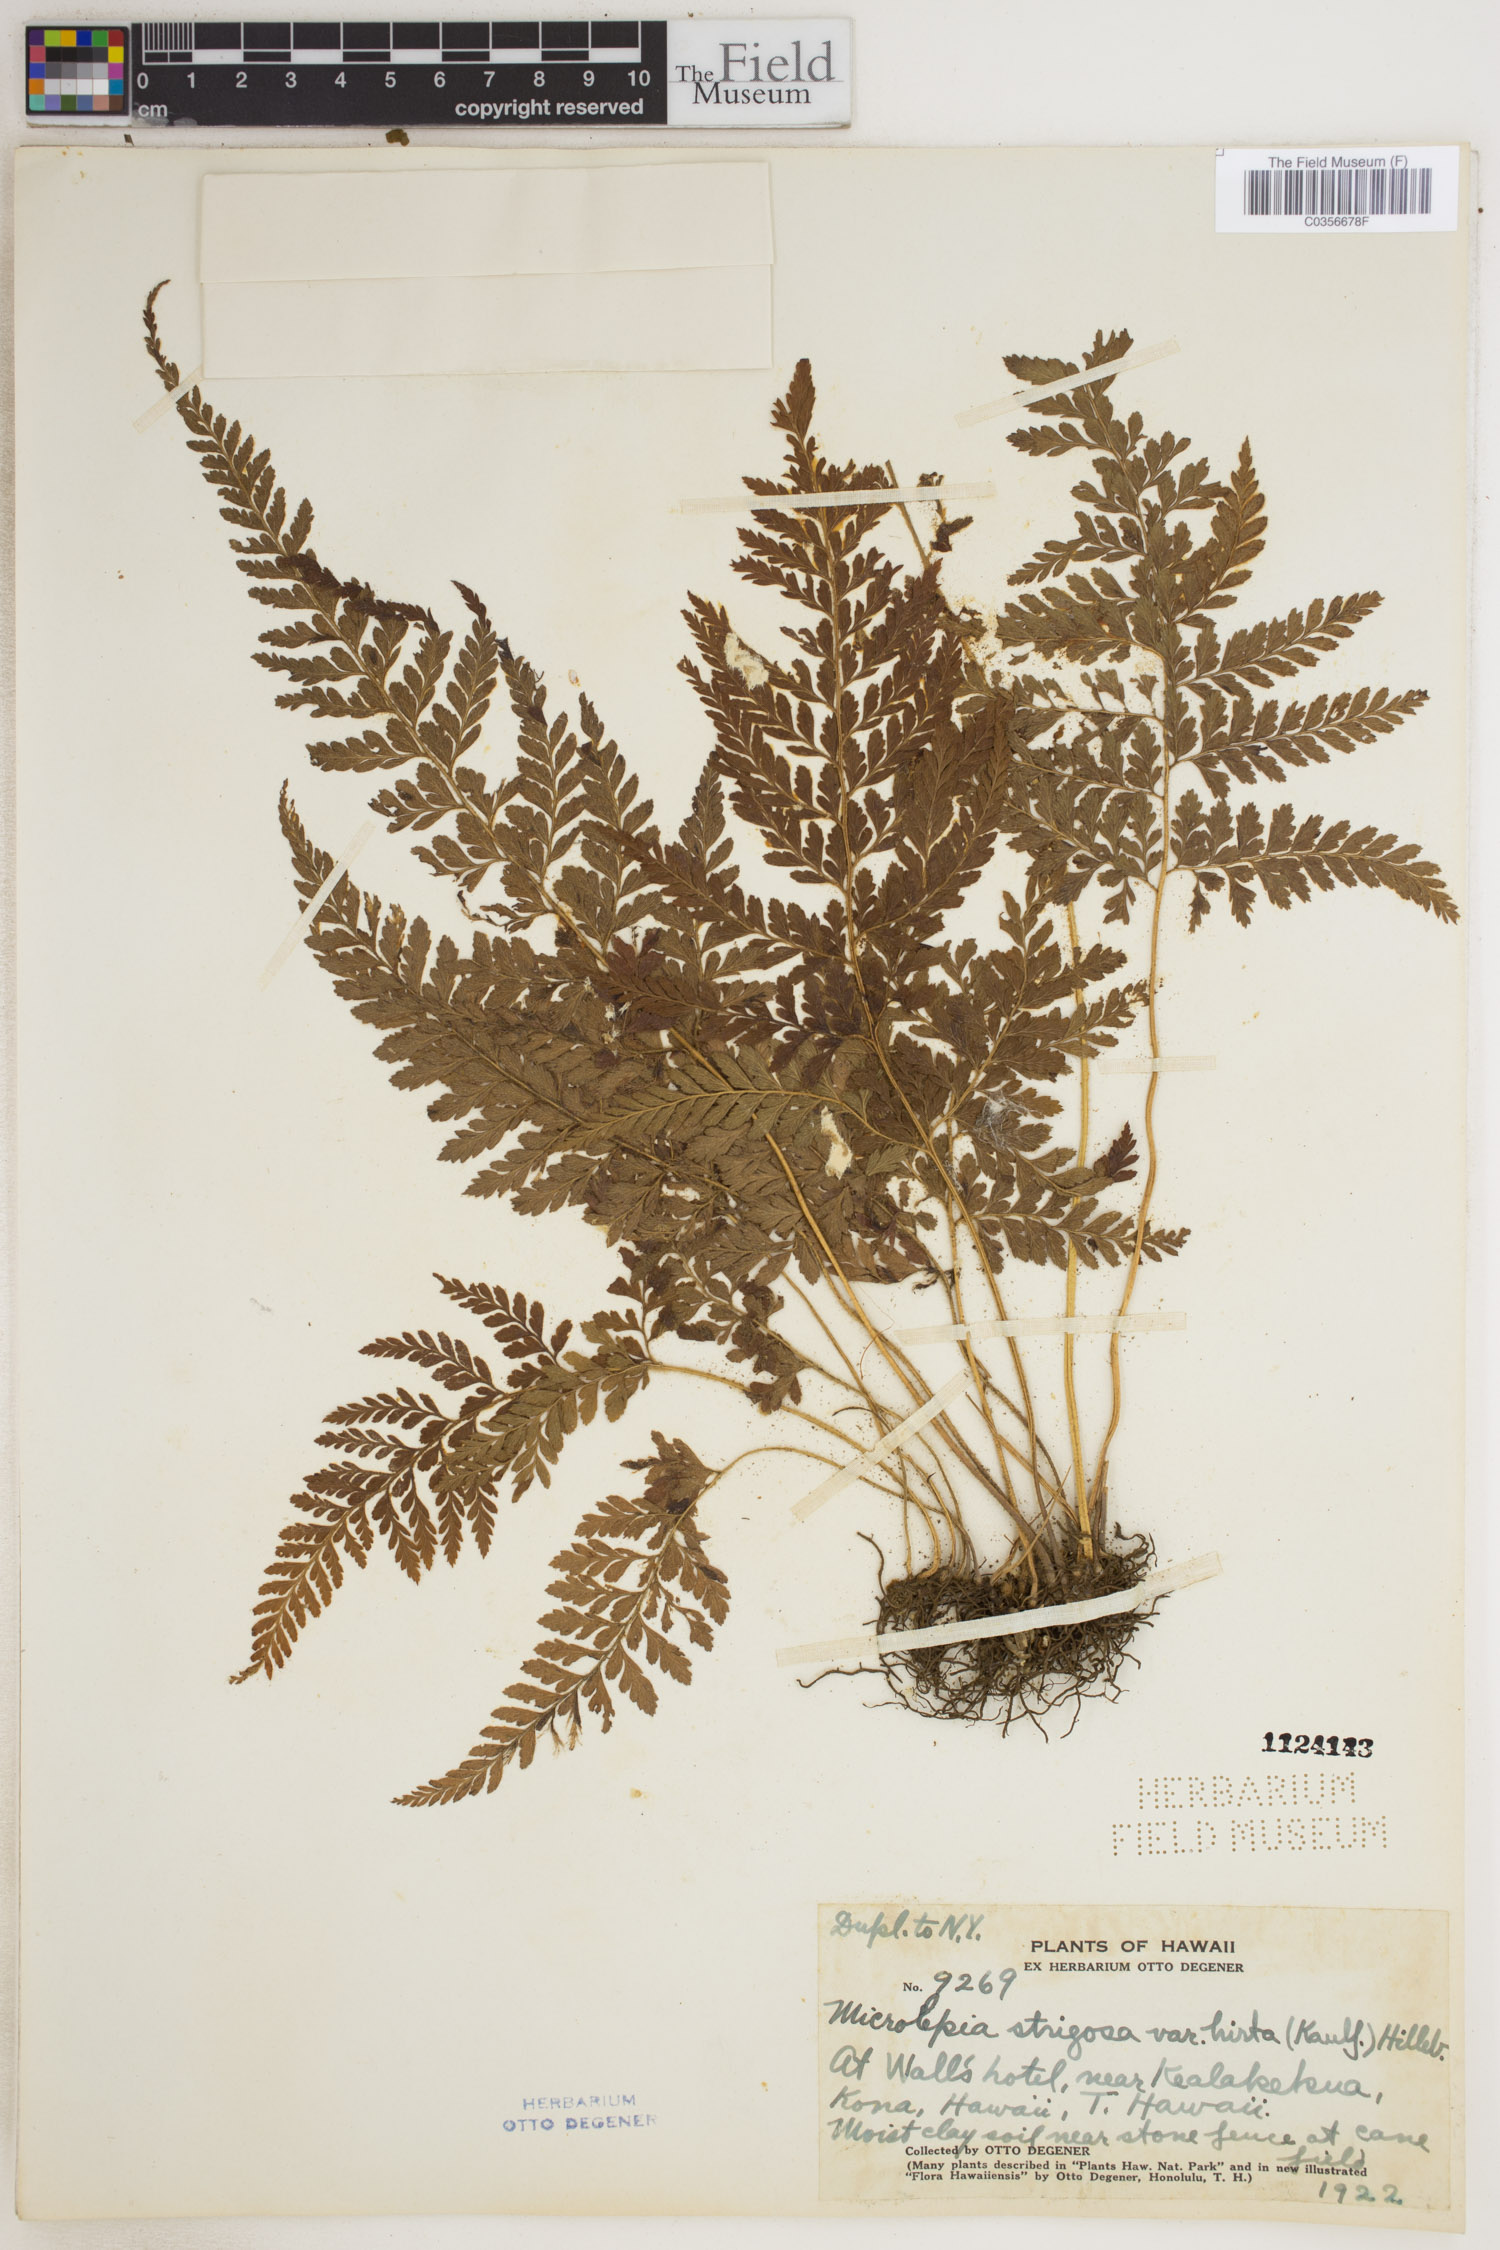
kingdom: Plantae
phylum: Tracheophyta
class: Polypodiopsida
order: Polypodiales
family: Dennstaedtiaceae
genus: Microlepia
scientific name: Microlepia strigosa
